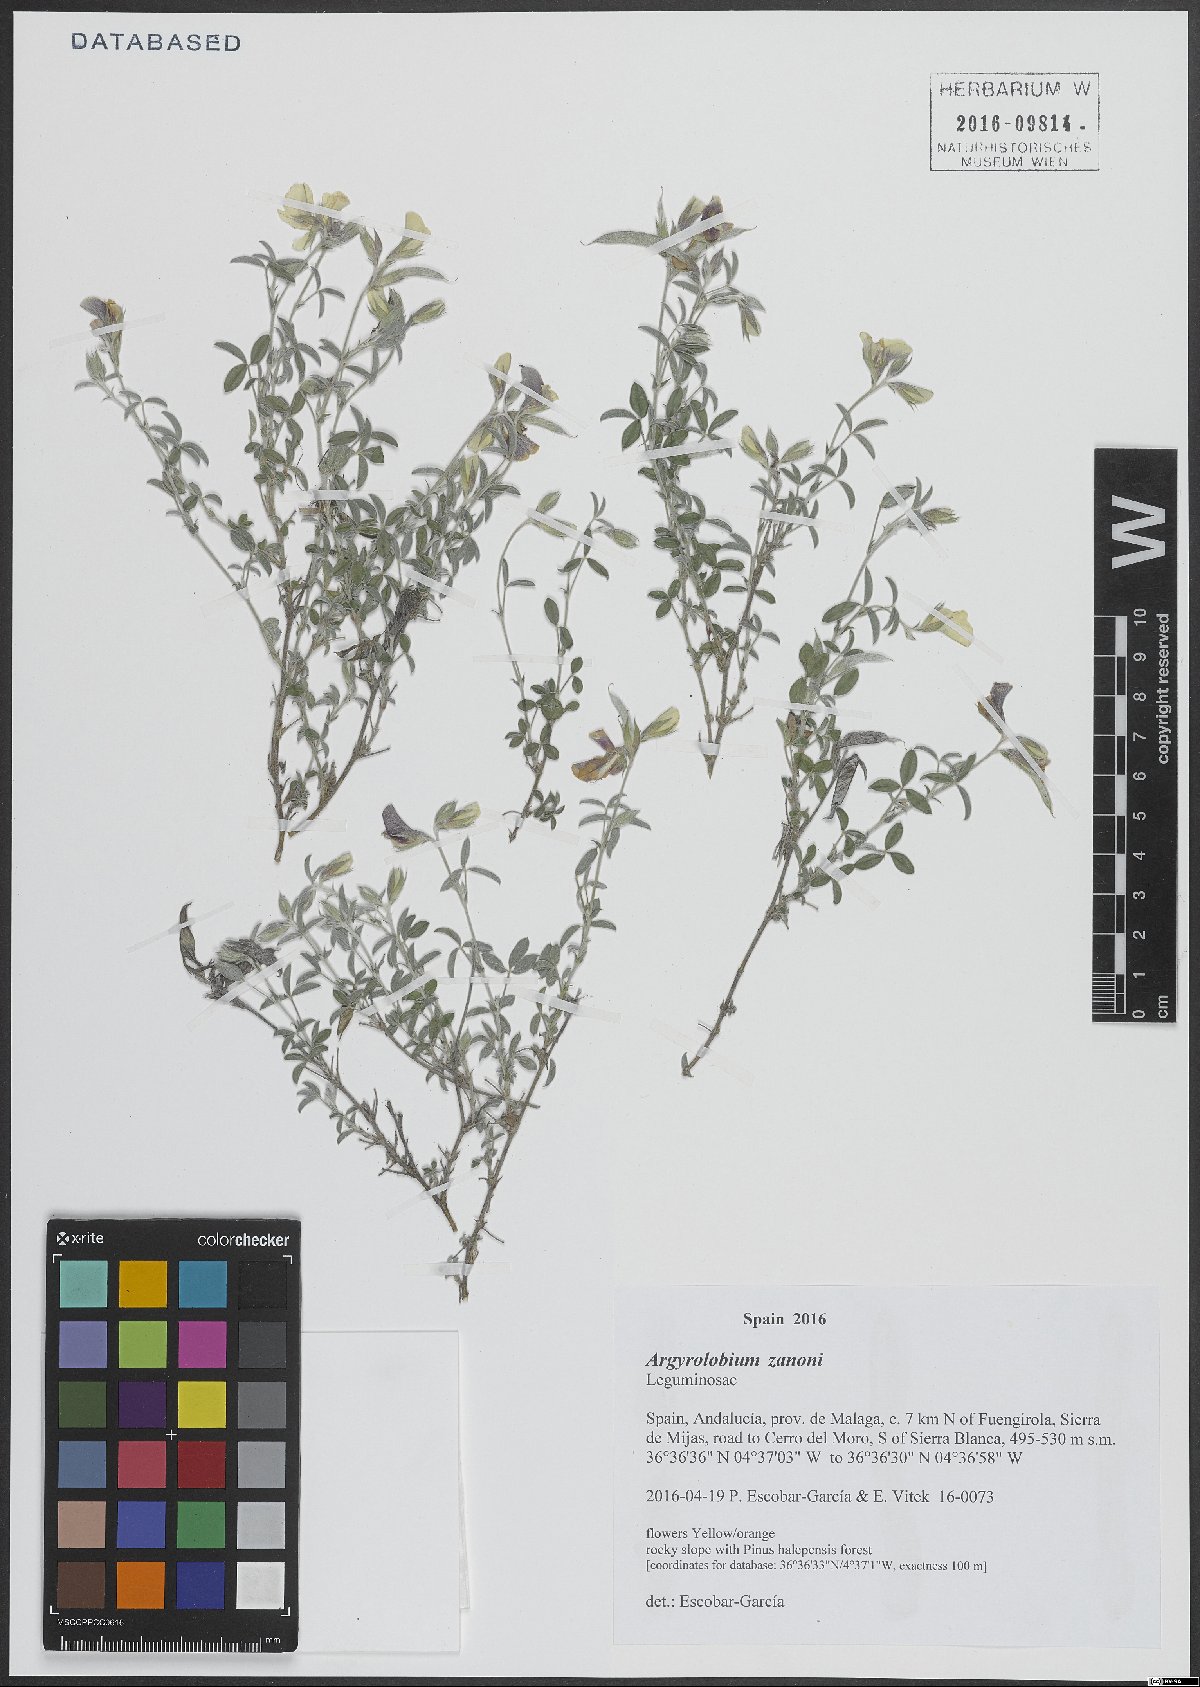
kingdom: Plantae
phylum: Tracheophyta
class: Magnoliopsida
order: Fabales
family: Fabaceae
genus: Argyrolobium
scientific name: Argyrolobium zanonii
